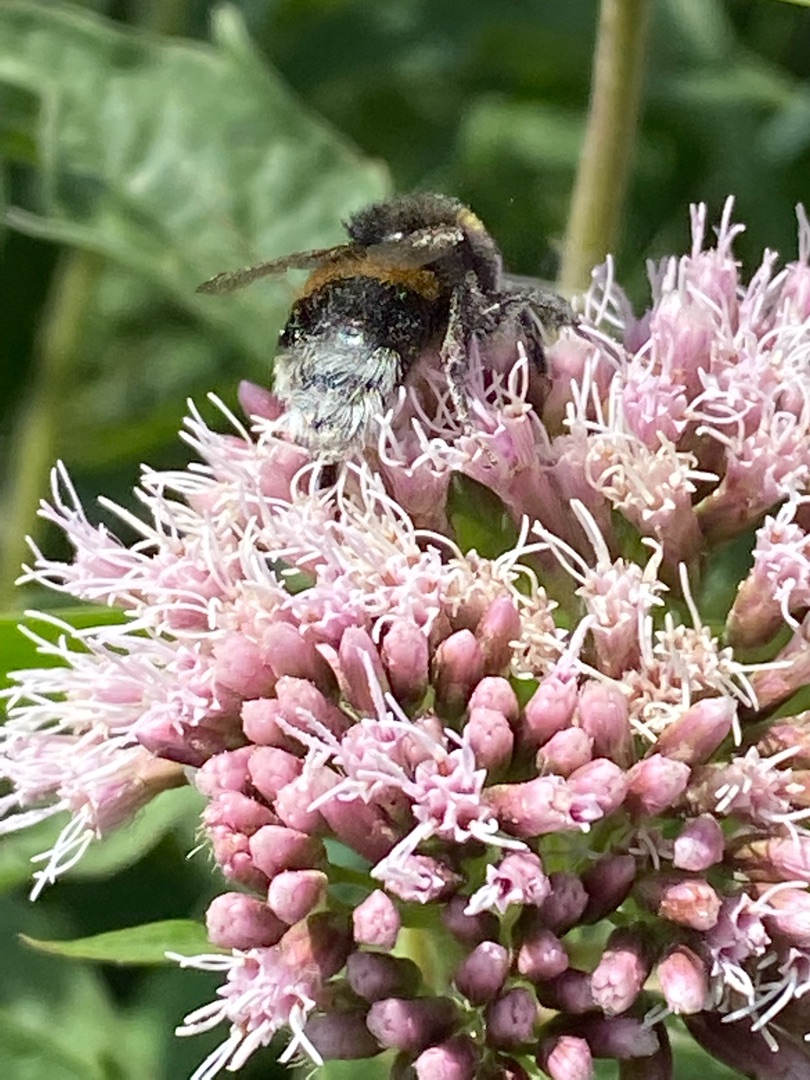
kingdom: Animalia
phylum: Arthropoda
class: Insecta
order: Lepidoptera
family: Noctuidae
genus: Autographa
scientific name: Autographa gamma
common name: Gammaugle
